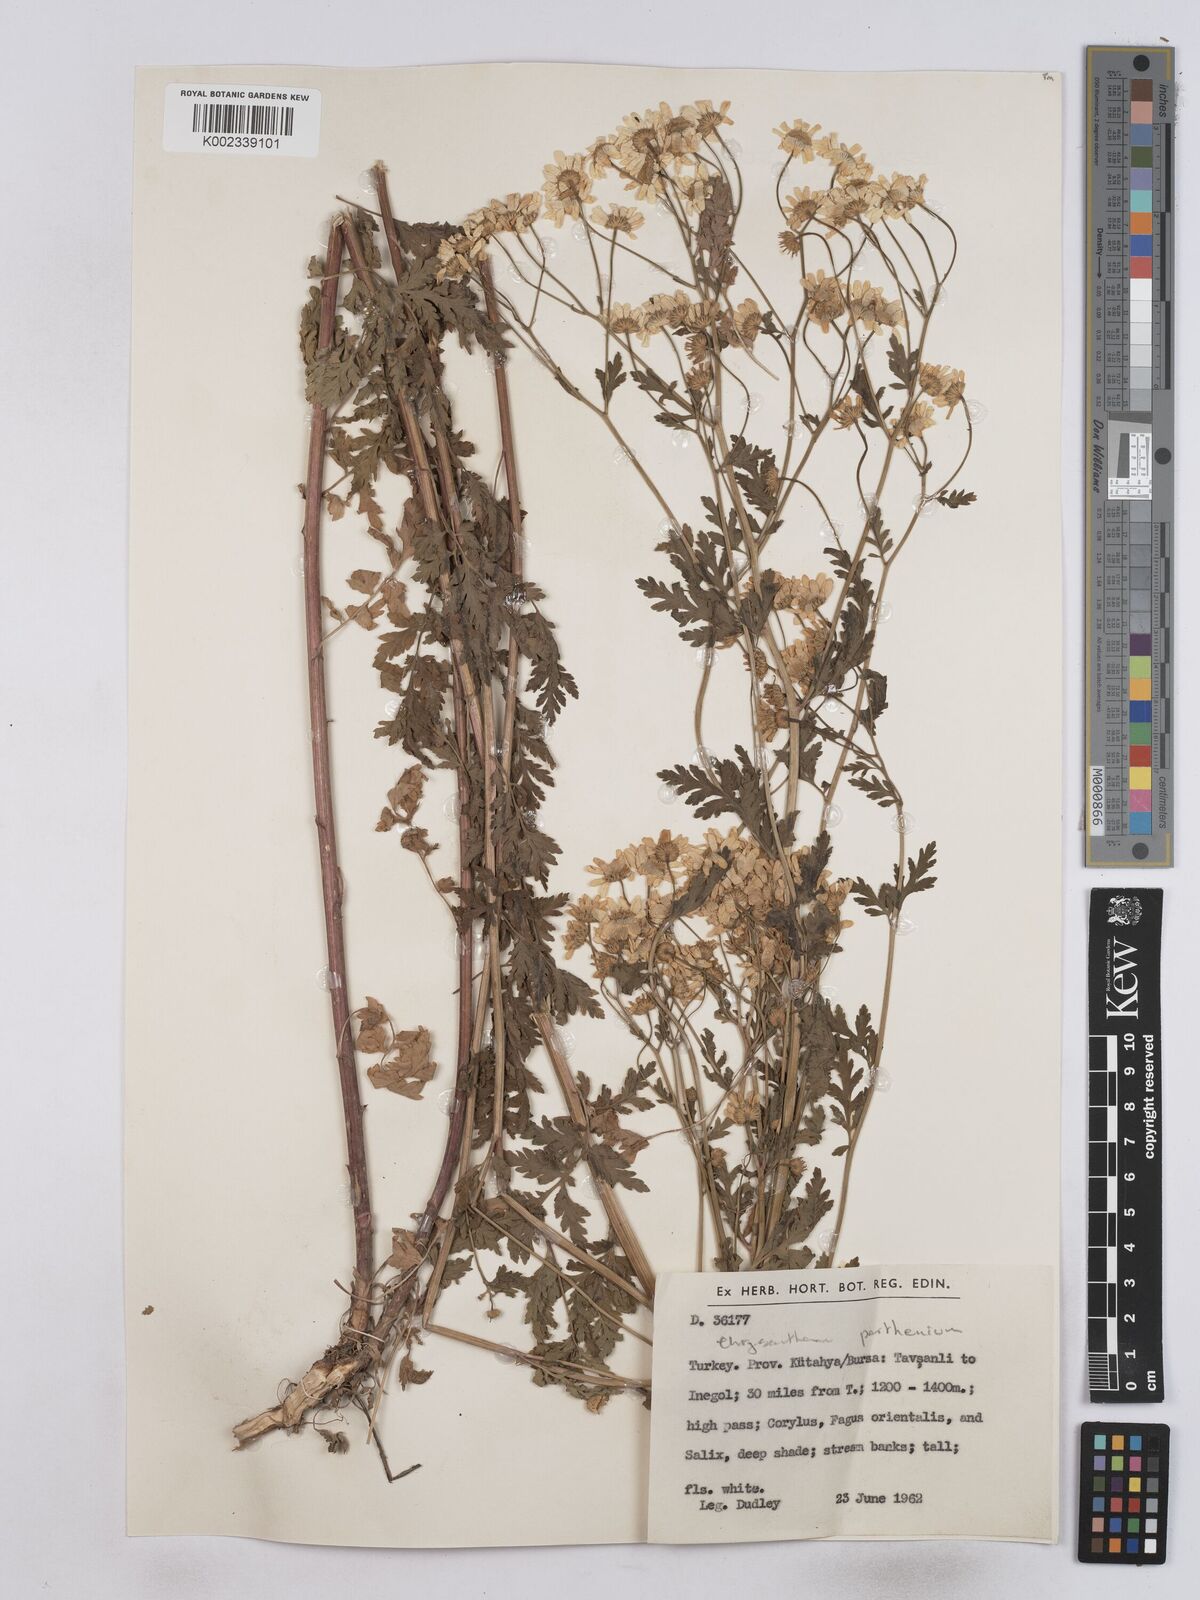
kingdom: Plantae
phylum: Tracheophyta
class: Magnoliopsida
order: Asterales
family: Asteraceae
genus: Tanacetum
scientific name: Tanacetum parthenium
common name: Feverfew
